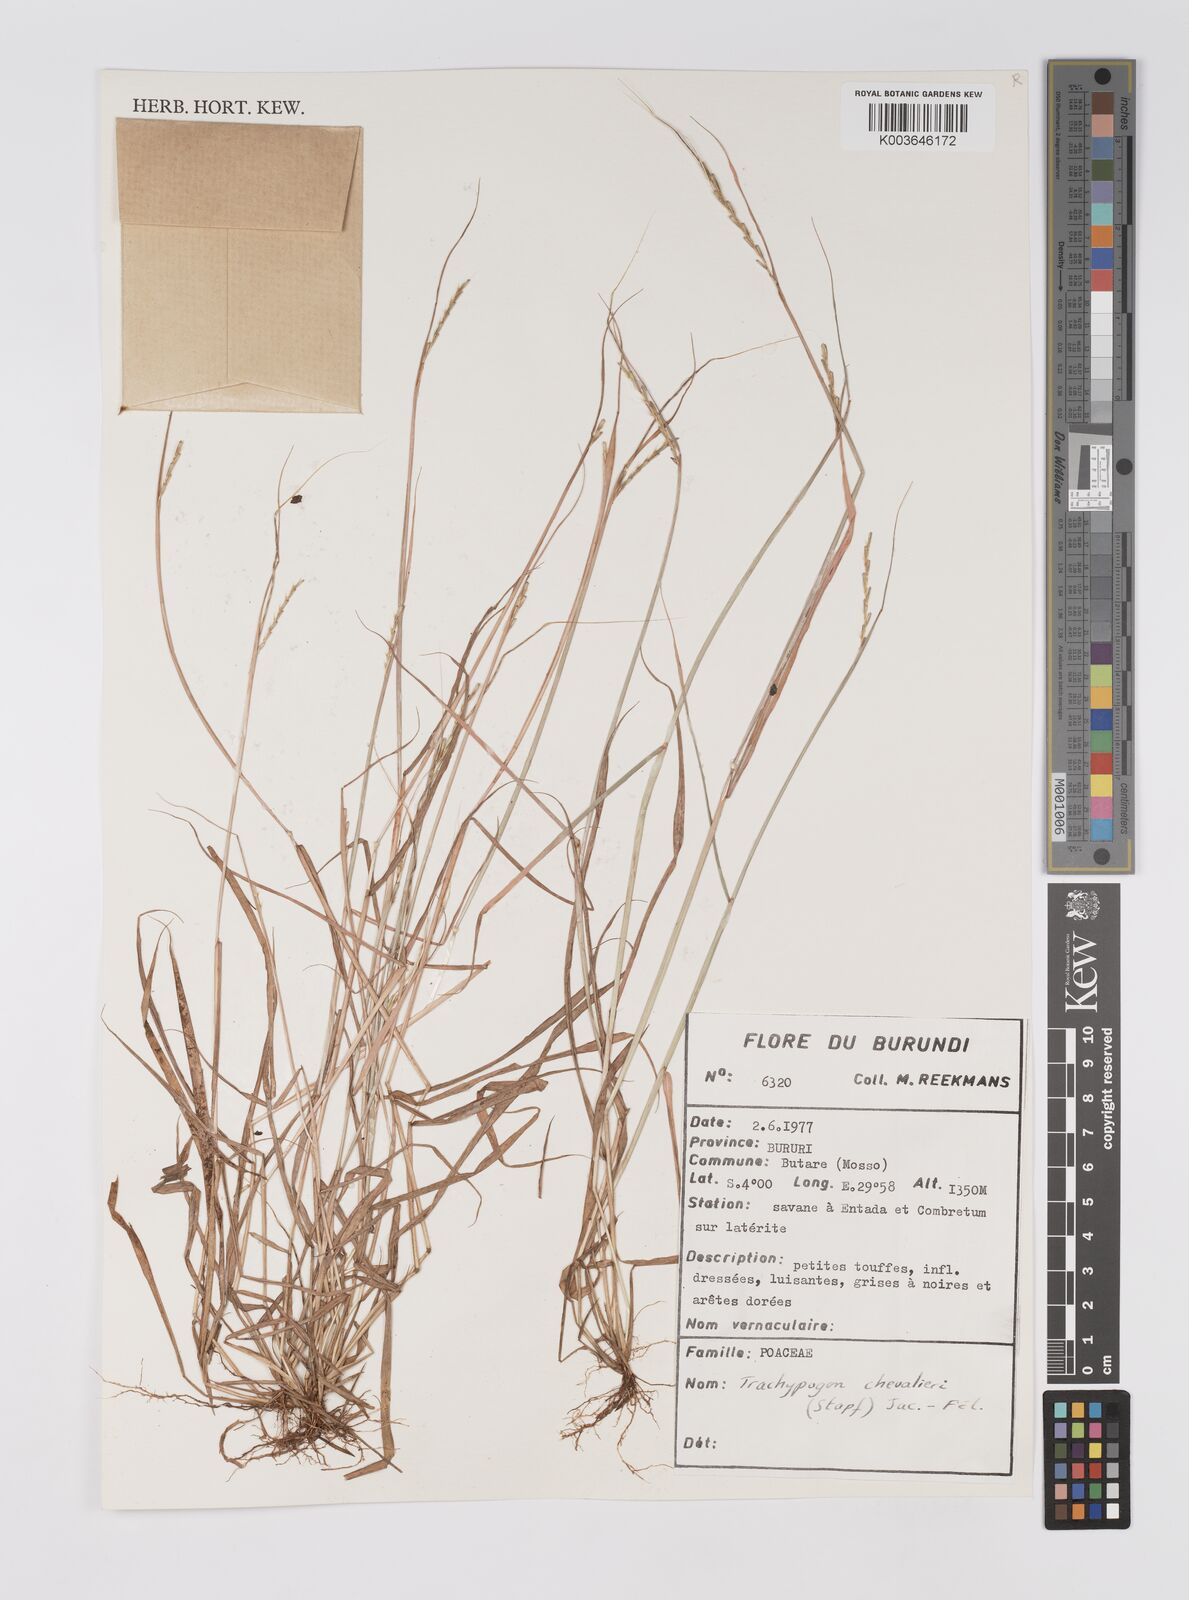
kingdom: Plantae
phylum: Tracheophyta
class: Liliopsida
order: Poales
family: Poaceae
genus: Trachypogon
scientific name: Trachypogon chevalieri
